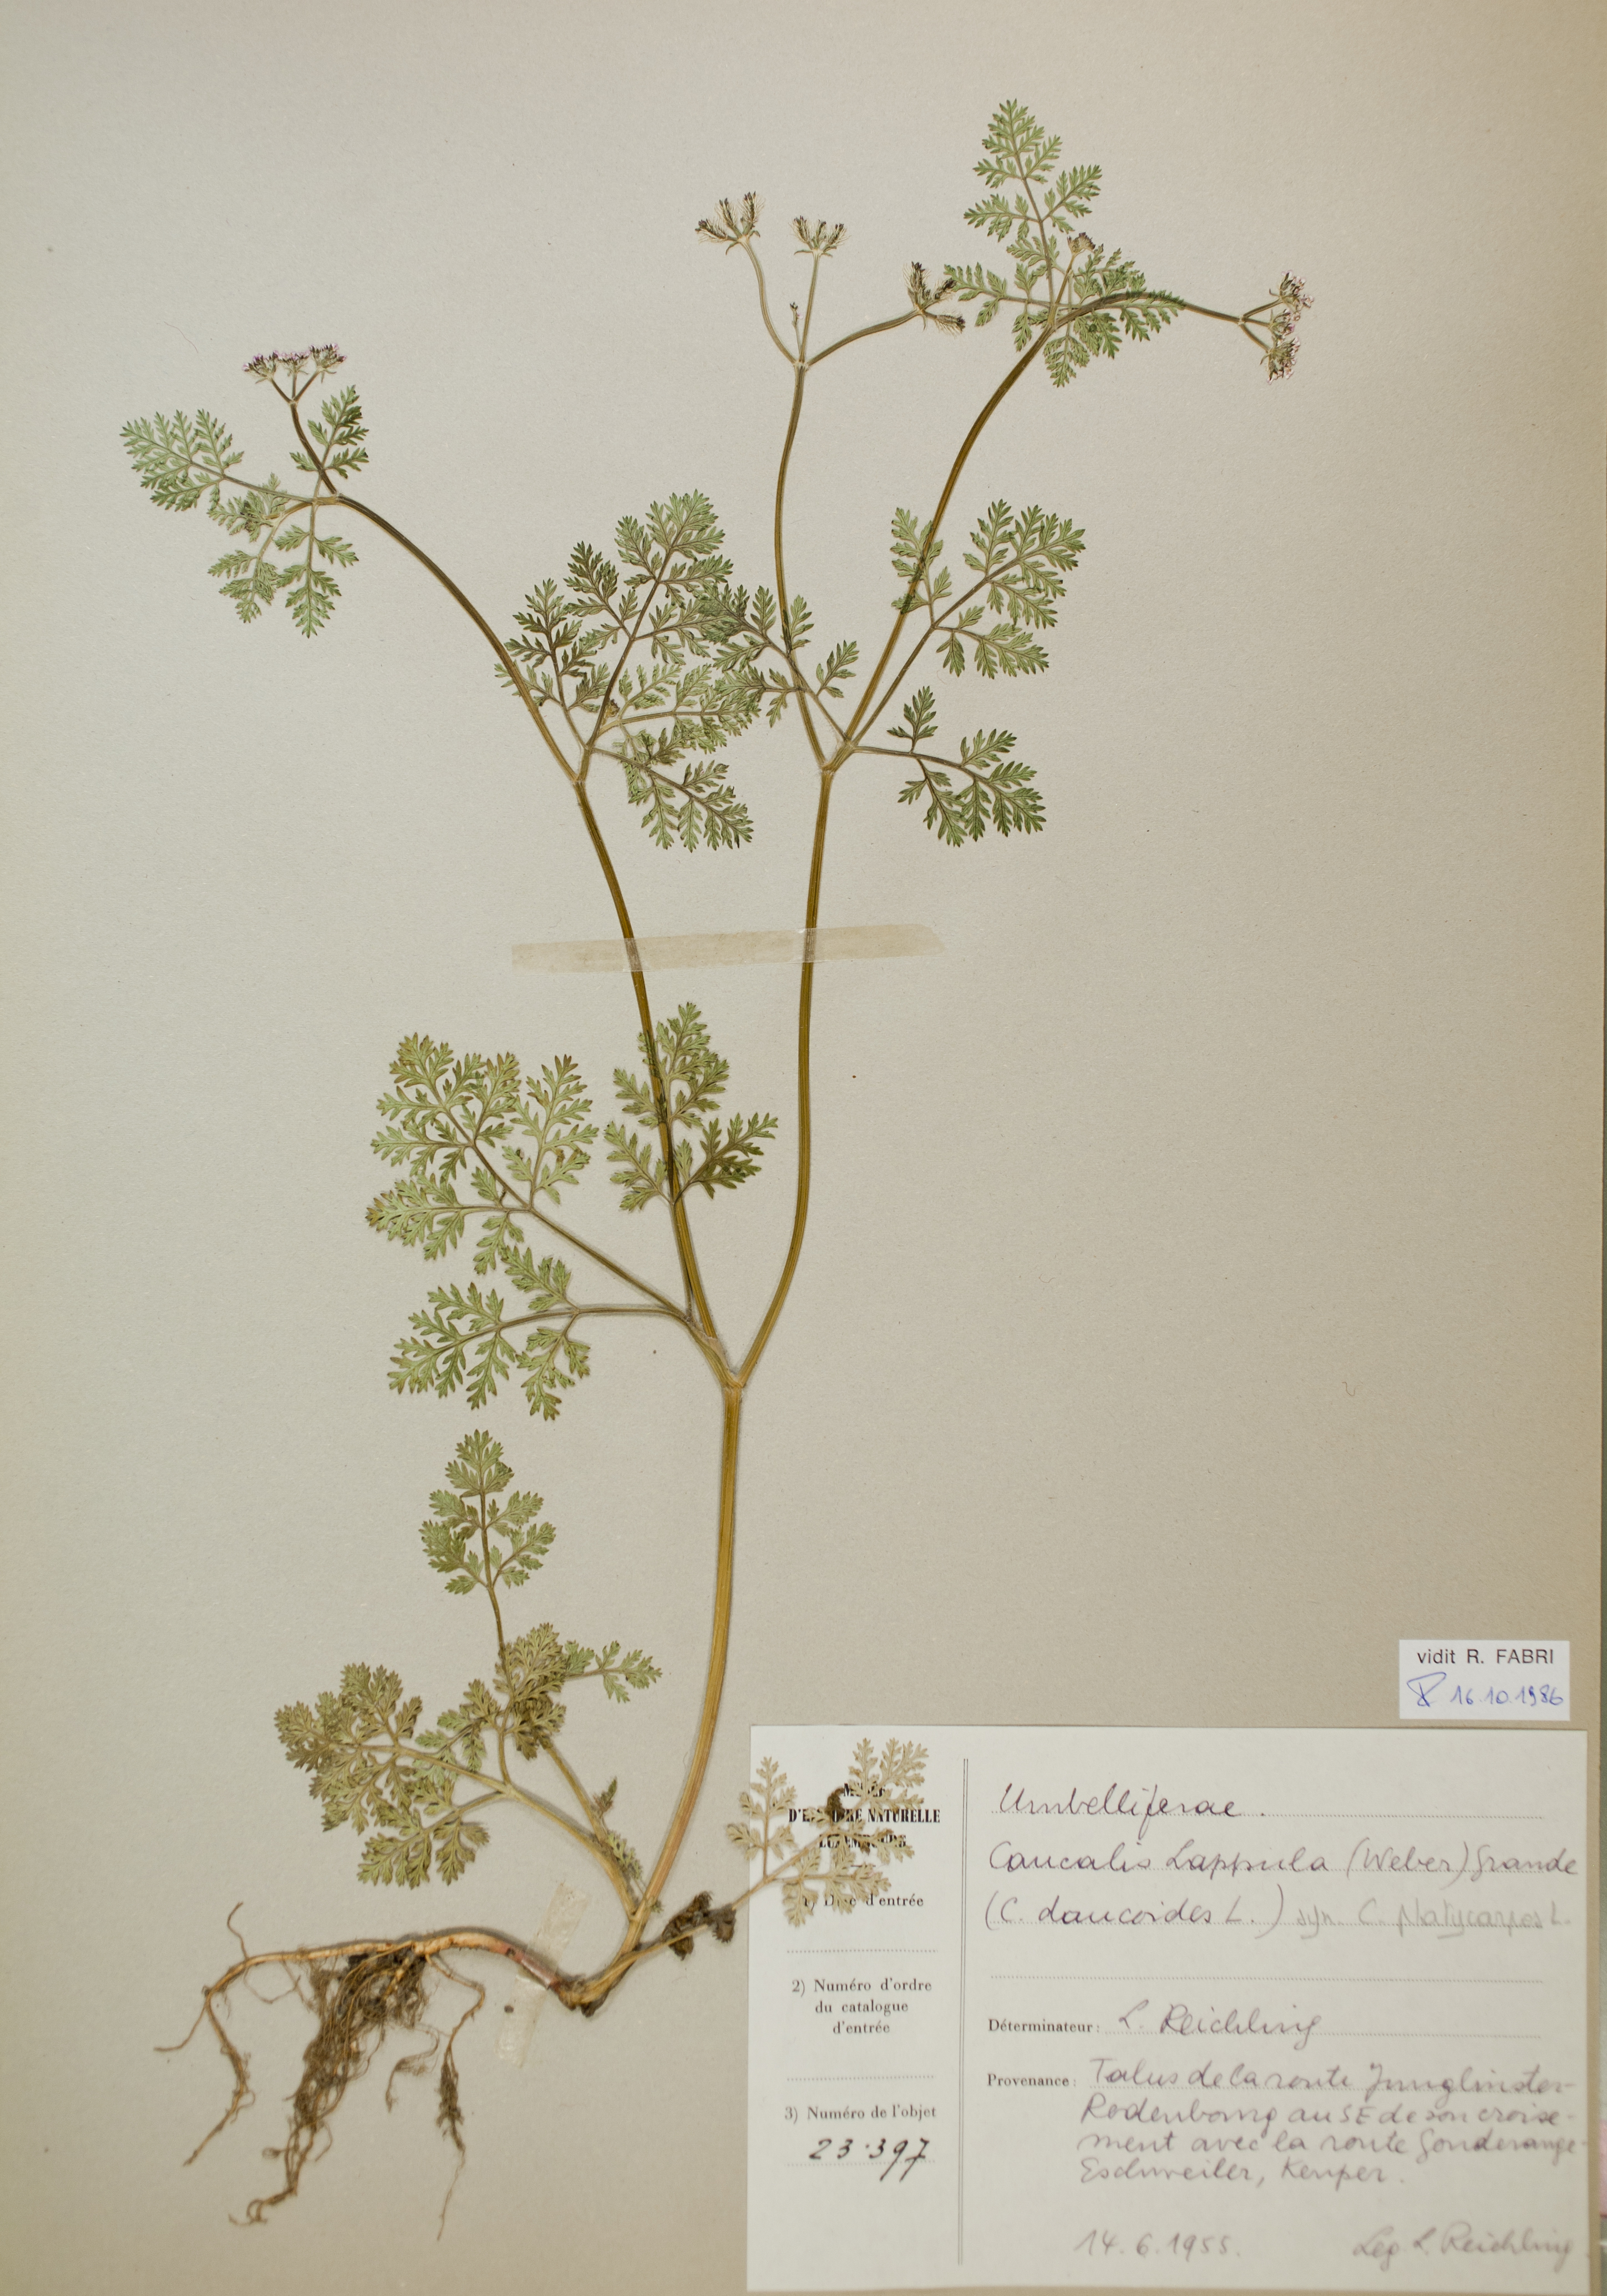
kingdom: Plantae
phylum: Tracheophyta
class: Magnoliopsida
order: Apiales
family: Apiaceae
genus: Orlaya
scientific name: Orlaya daucoides
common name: Flat-fruit orlaya
